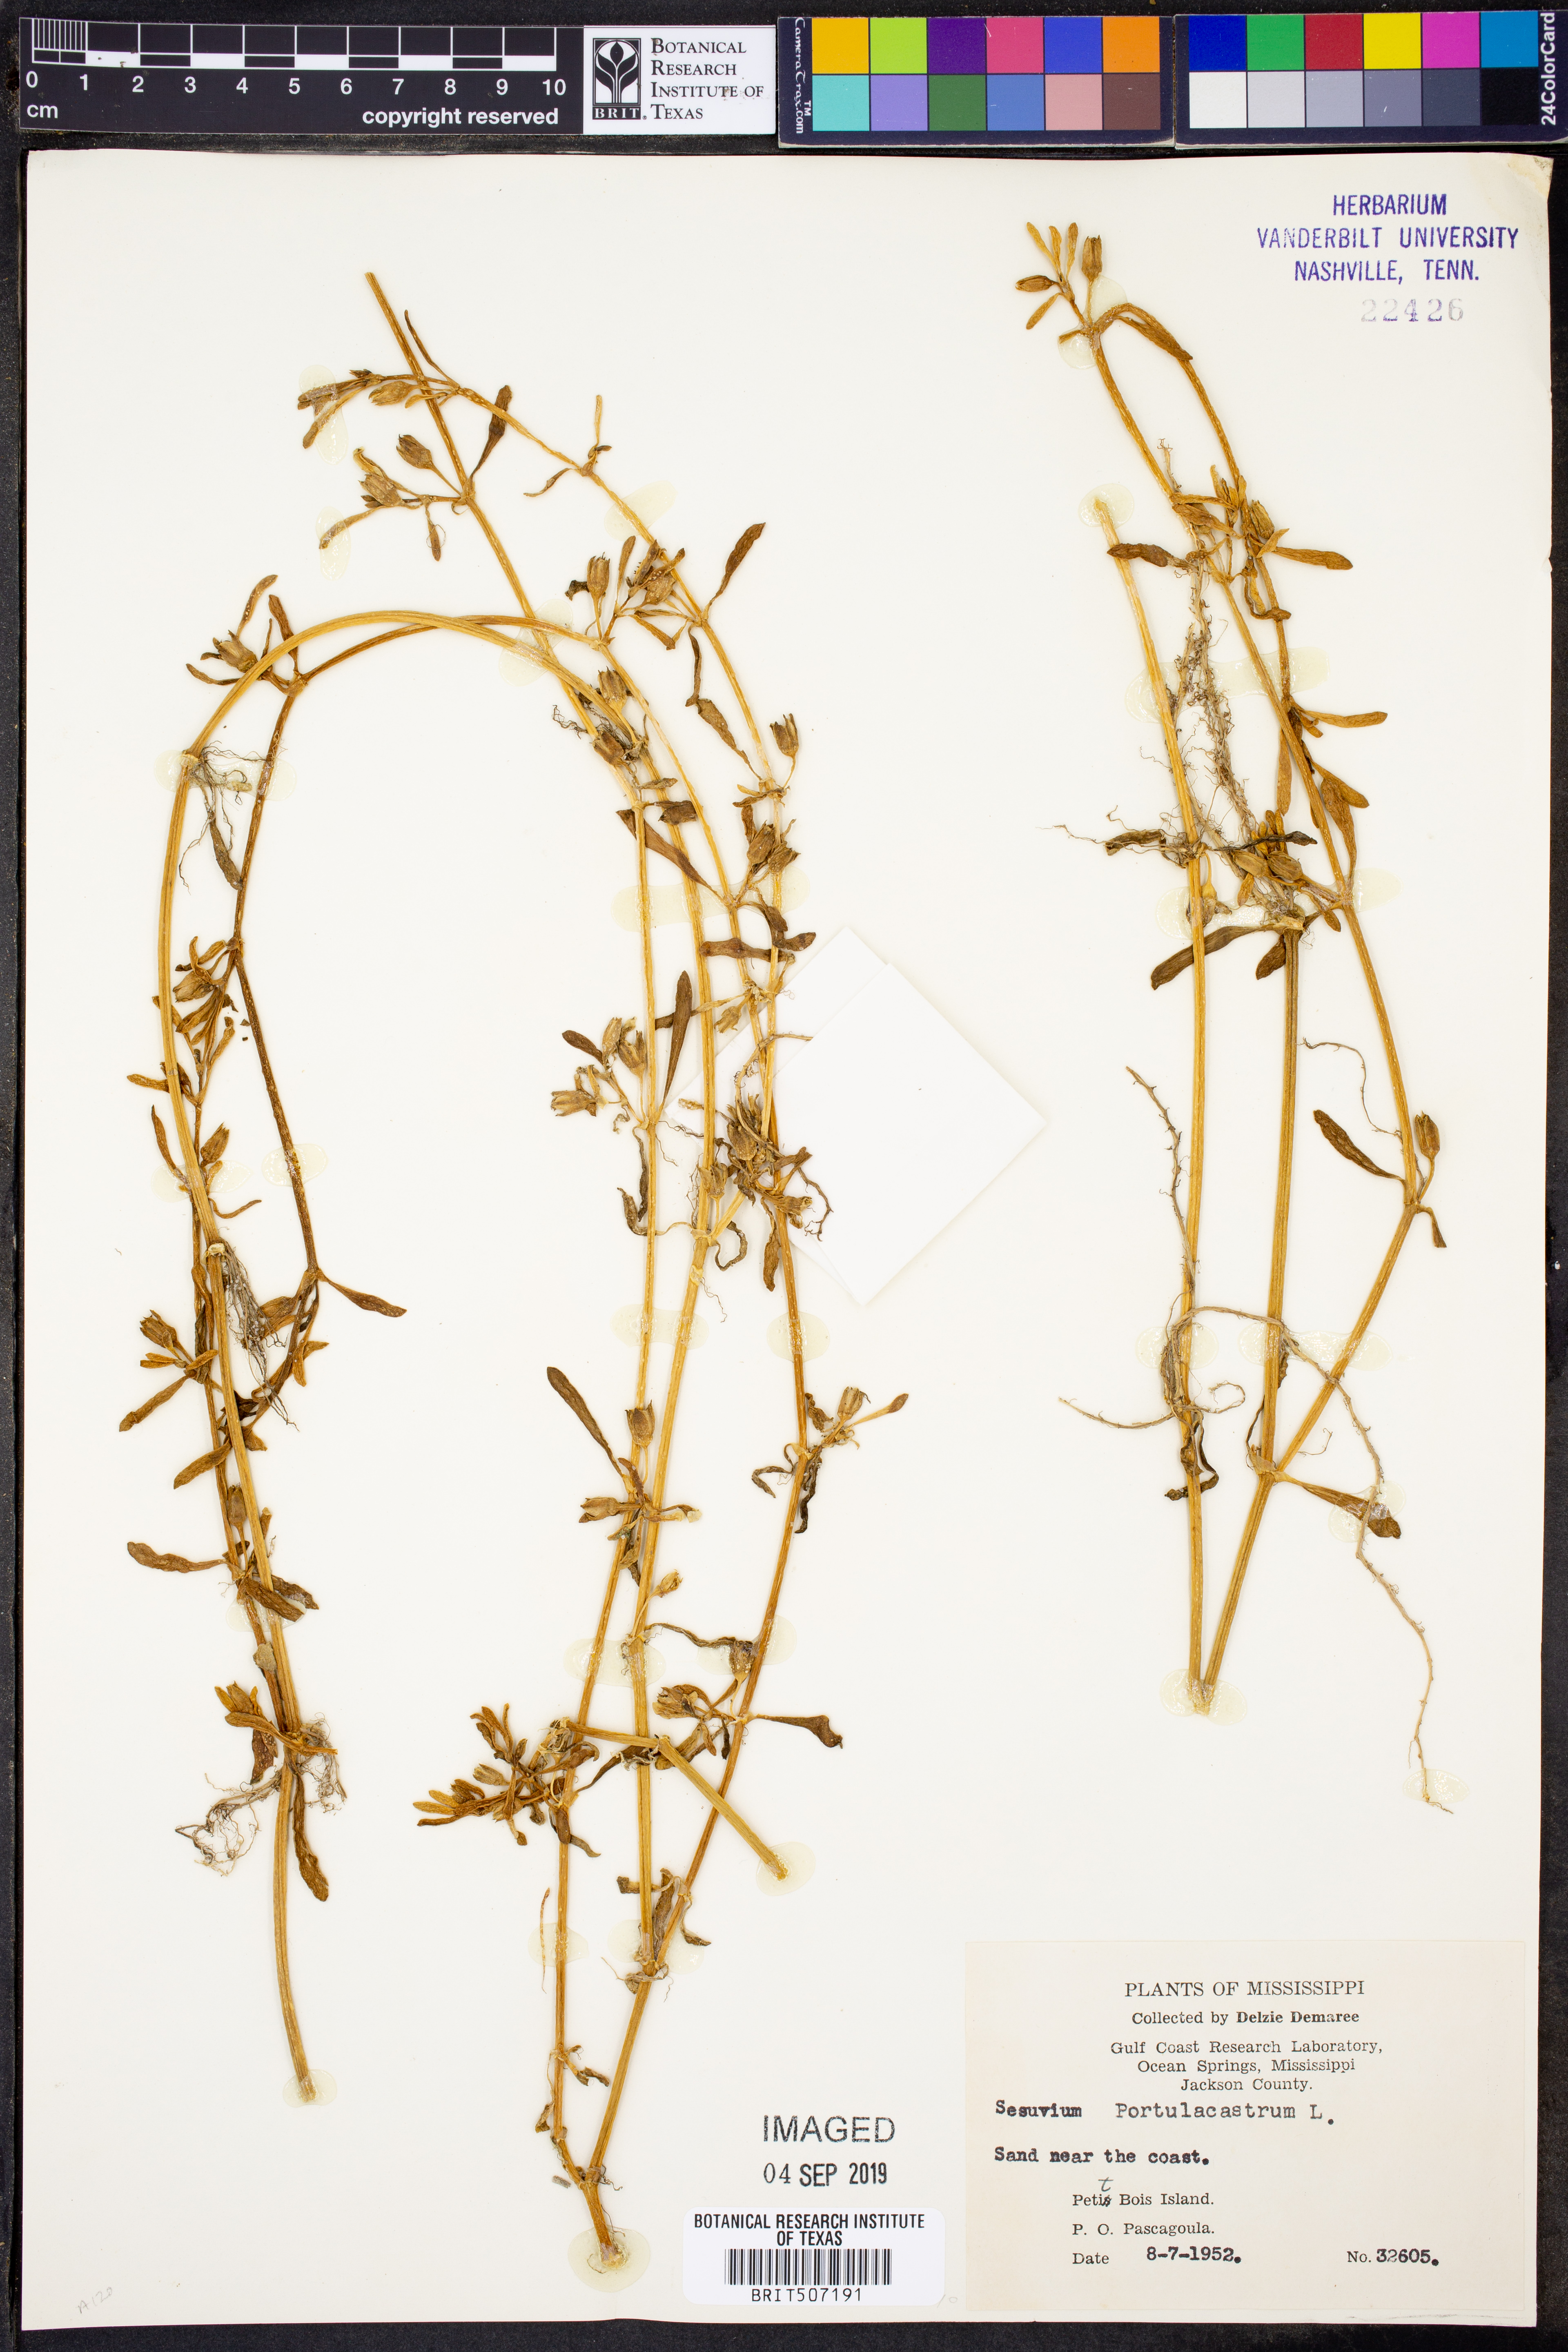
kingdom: Plantae
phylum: Tracheophyta
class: Magnoliopsida
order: Caryophyllales
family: Aizoaceae
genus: Sesuvium
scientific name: Sesuvium portulacastrum
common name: Sea-purslane
